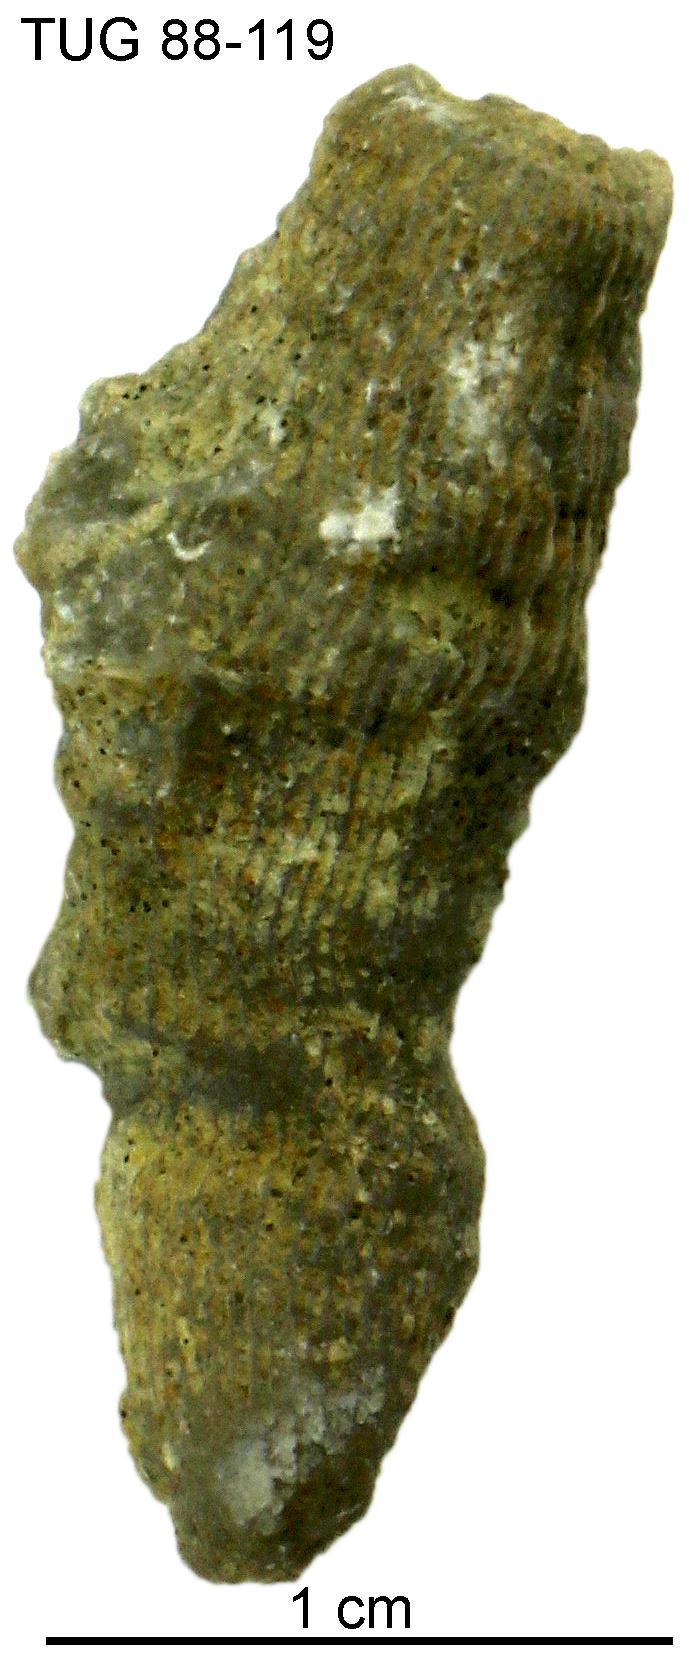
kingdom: Animalia
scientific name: Animalia
